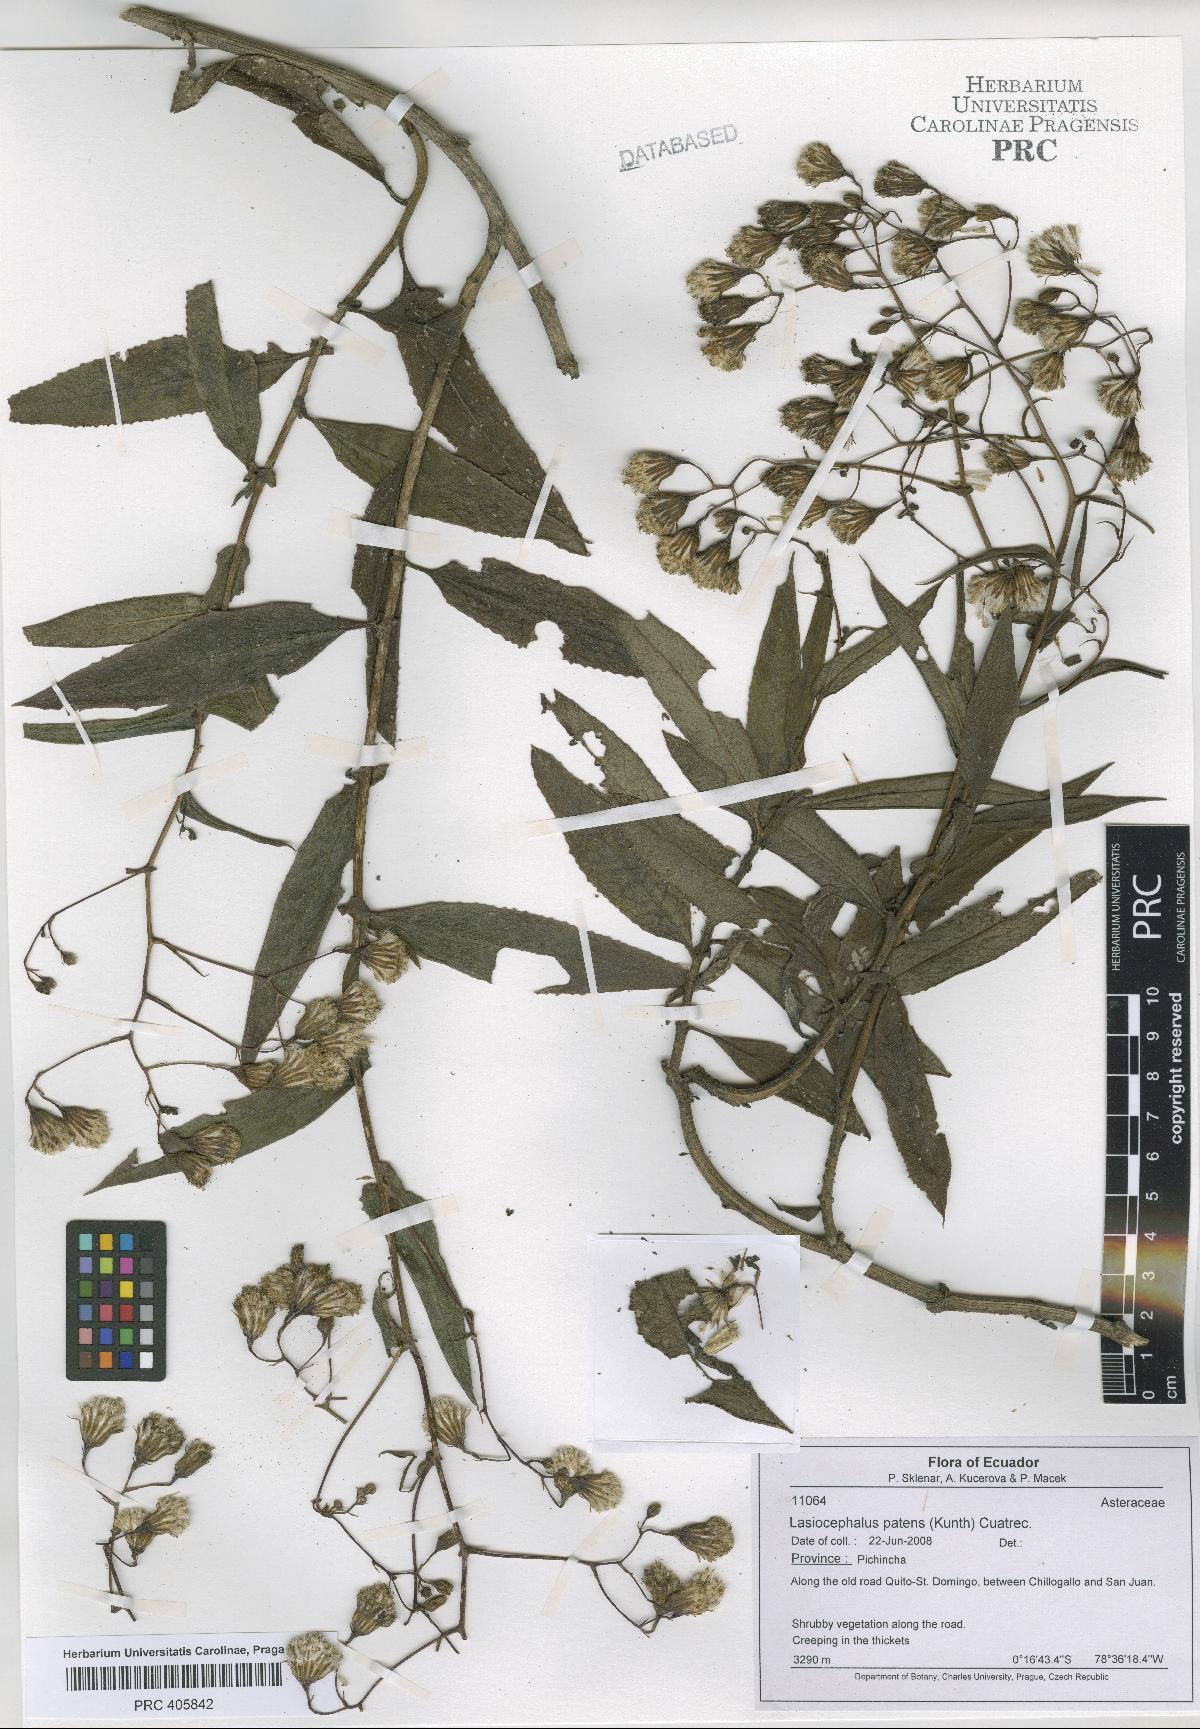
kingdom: Plantae
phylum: Tracheophyta
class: Magnoliopsida
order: Asterales
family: Asteraceae
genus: Aetheolaena
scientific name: Aetheolaena patens
